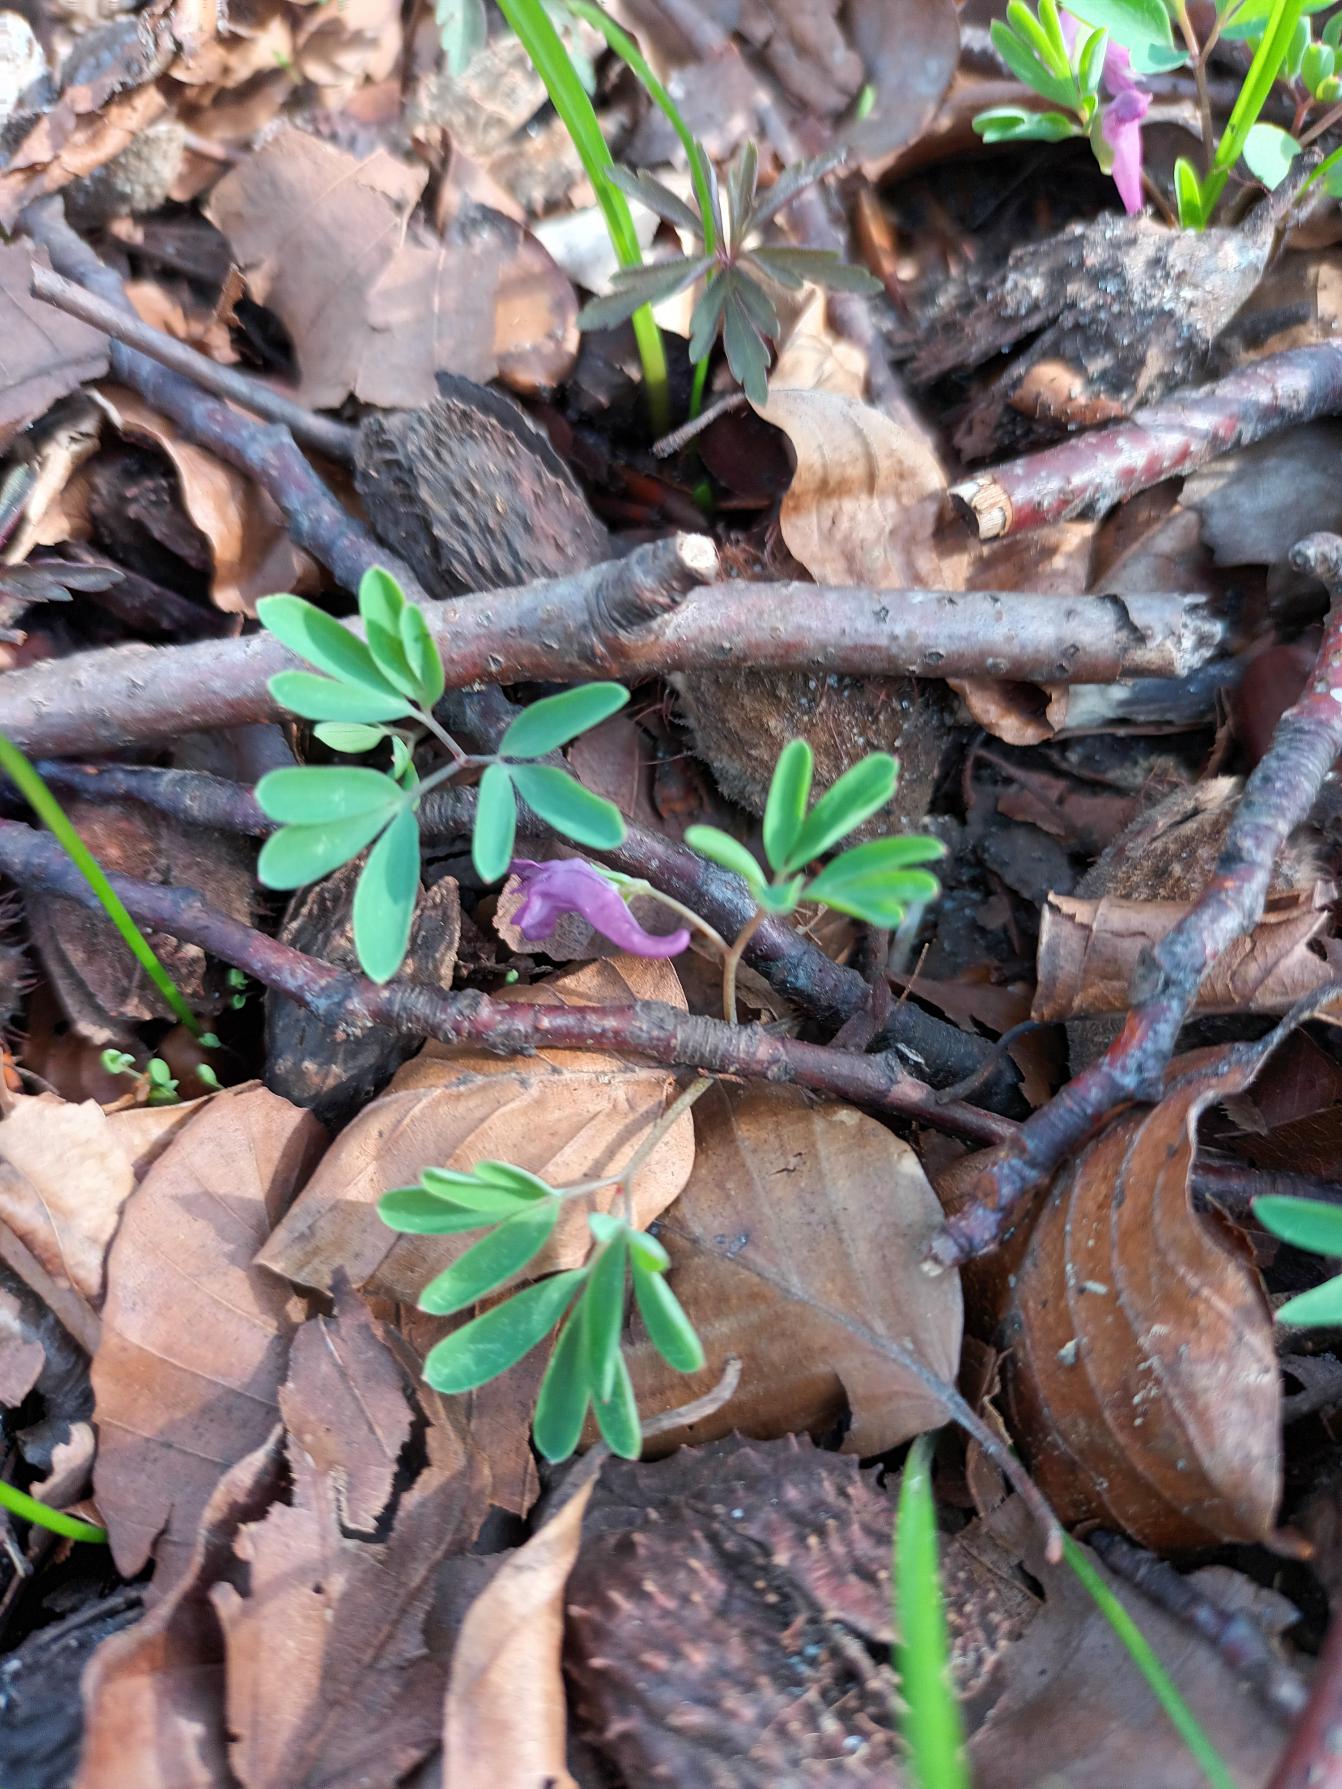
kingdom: Plantae
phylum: Tracheophyta
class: Magnoliopsida
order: Ranunculales
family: Papaveraceae
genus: Corydalis
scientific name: Corydalis intermedia
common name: Liden lærkespore
